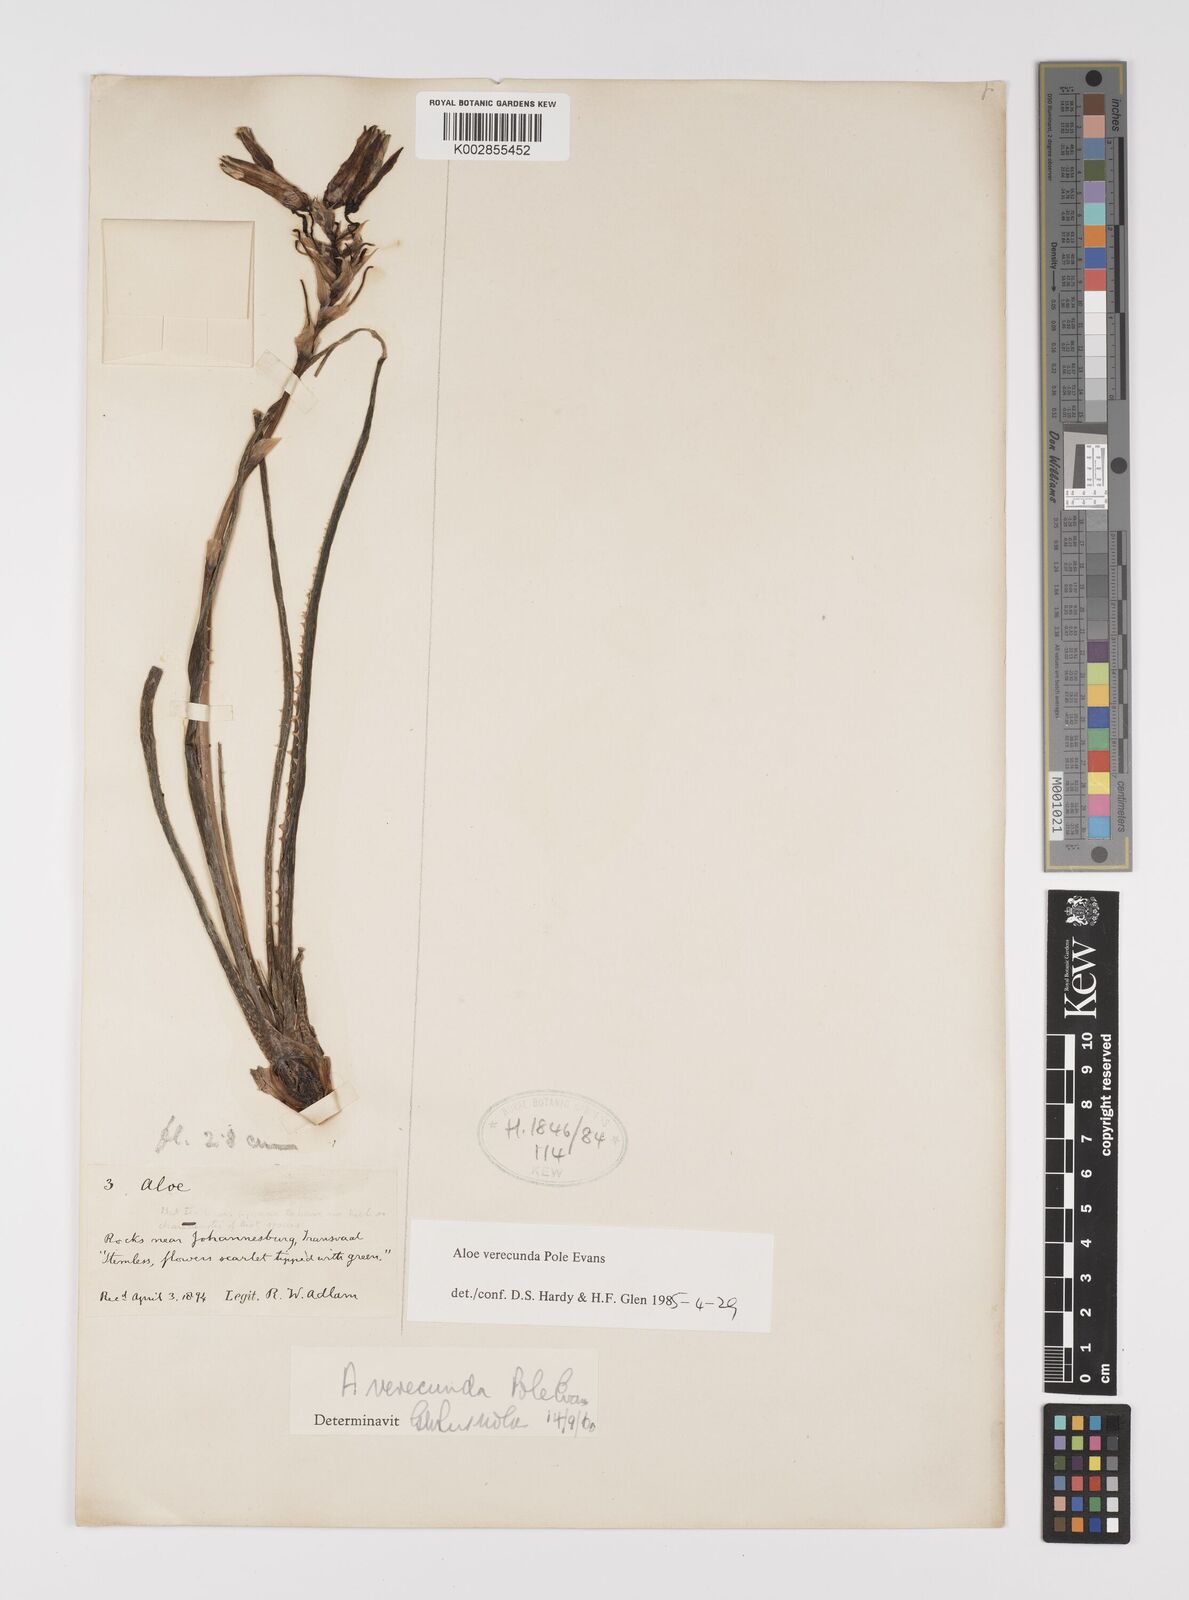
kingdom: Plantae
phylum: Tracheophyta
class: Liliopsida
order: Asparagales
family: Asphodelaceae
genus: Aloe
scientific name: Aloe verecunda
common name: Grass aloe
